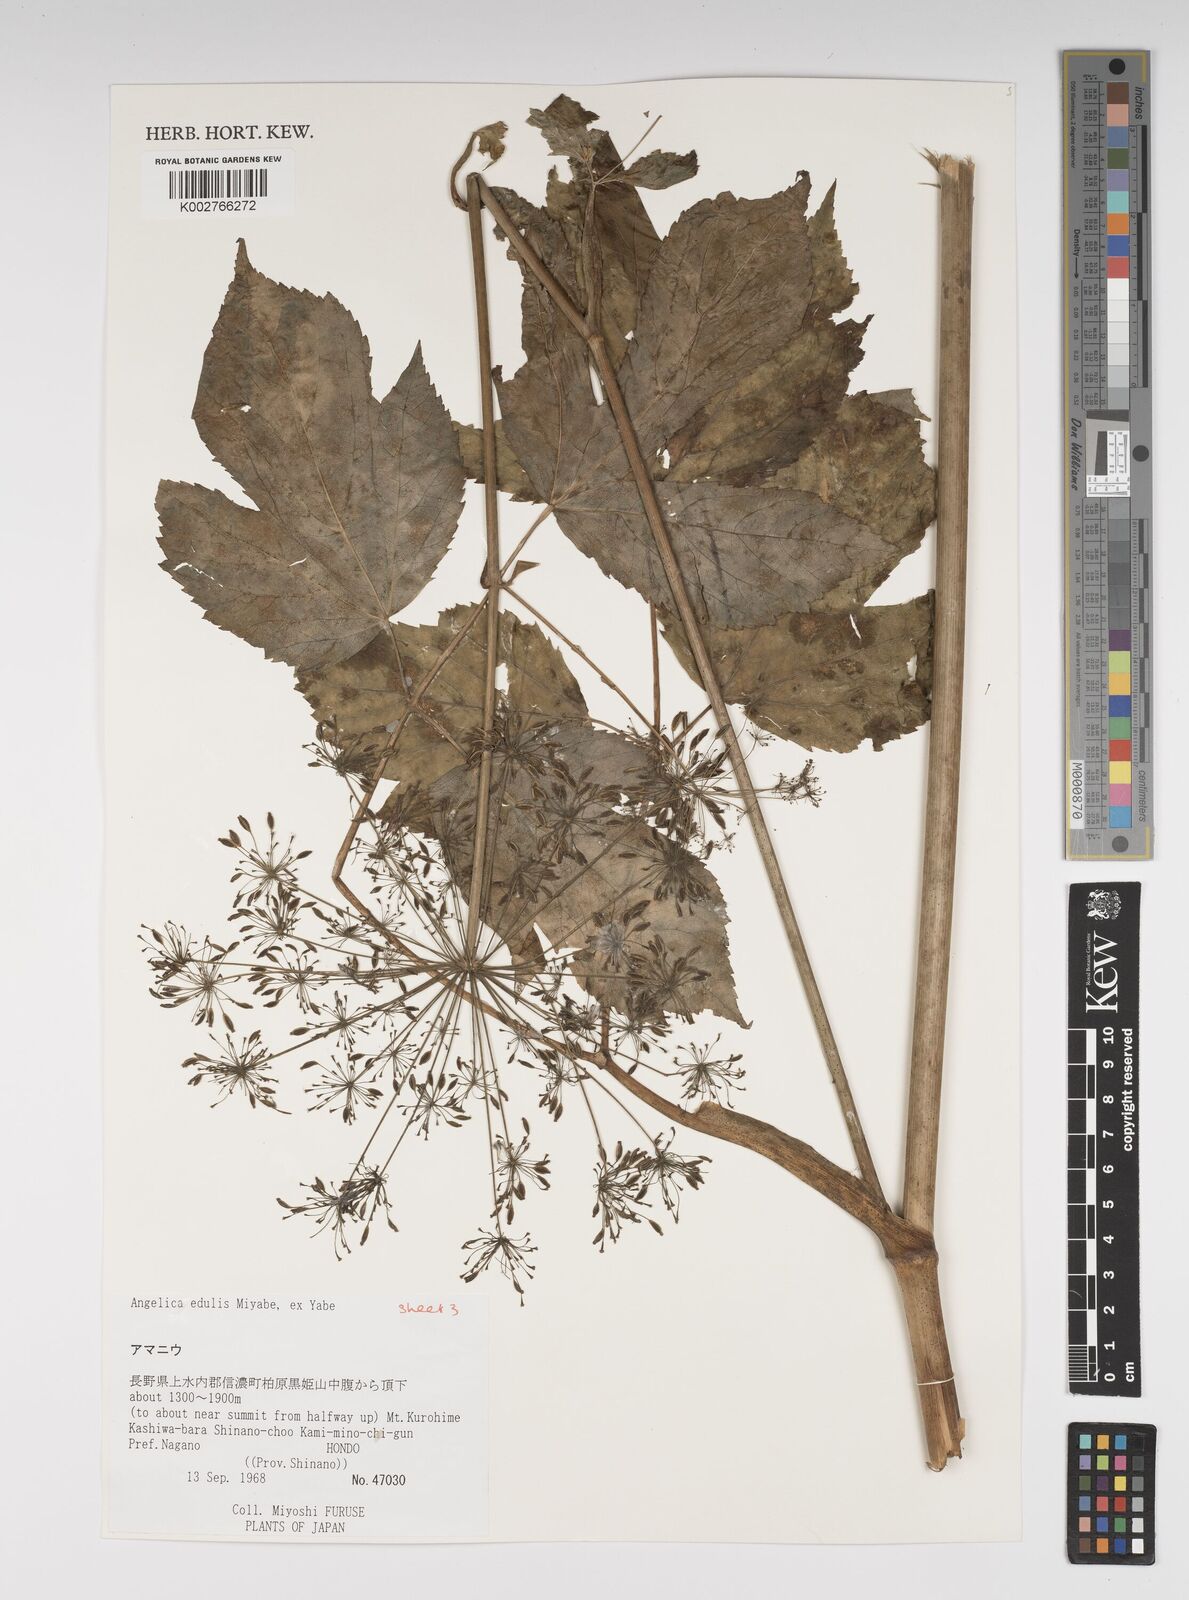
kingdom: Plantae
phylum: Tracheophyta
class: Magnoliopsida
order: Apiales
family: Apiaceae
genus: Angelica
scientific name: Angelica edulis
